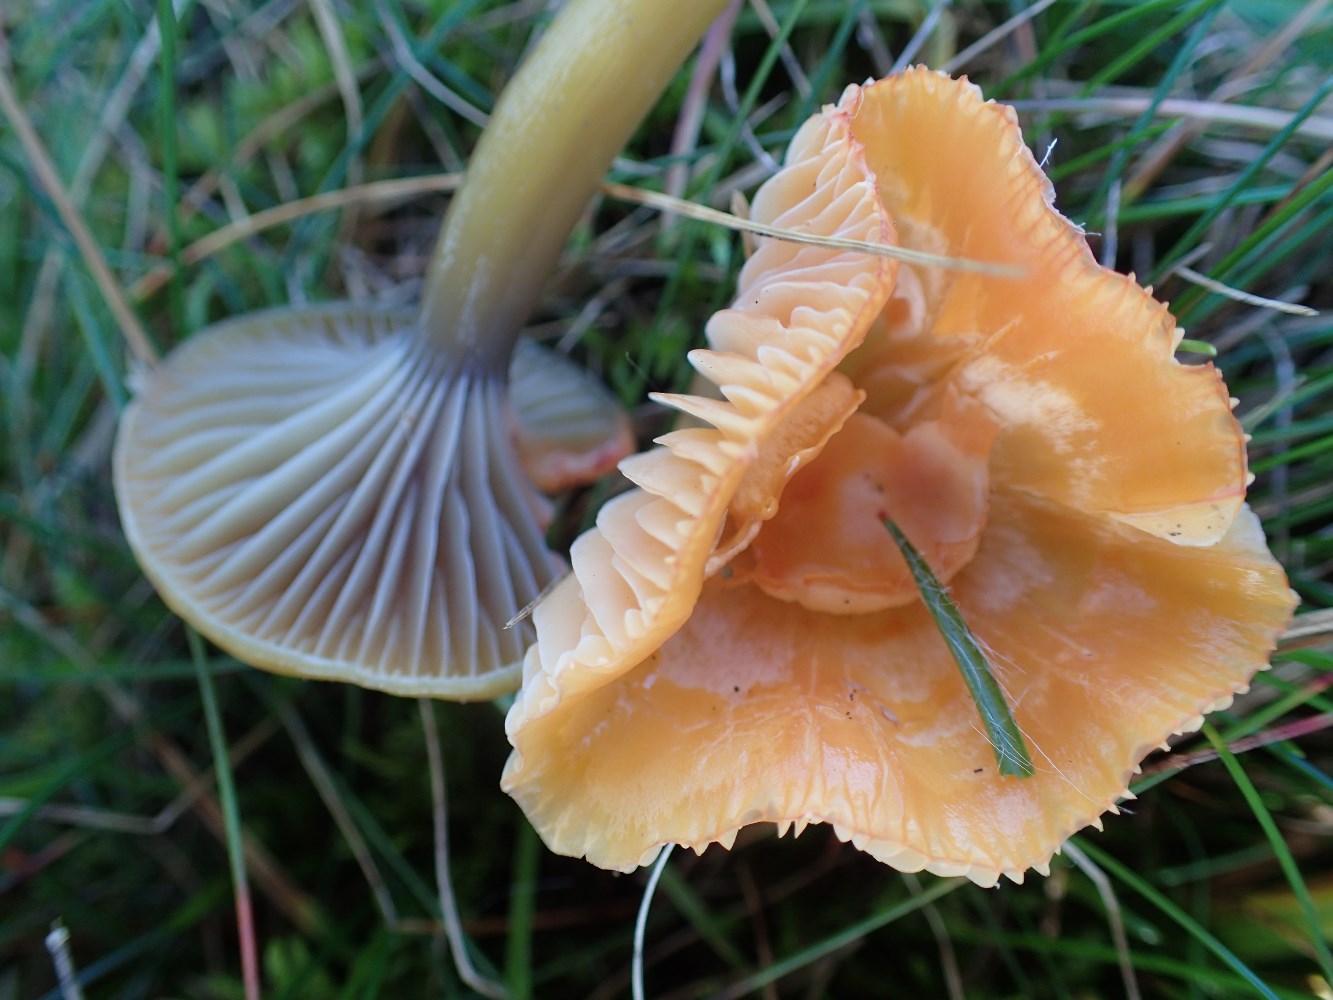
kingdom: Fungi
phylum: Basidiomycota
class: Agaricomycetes
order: Agaricales
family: Hygrophoraceae
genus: Gliophorus
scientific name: Gliophorus laetus
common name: brusk-vokshat
